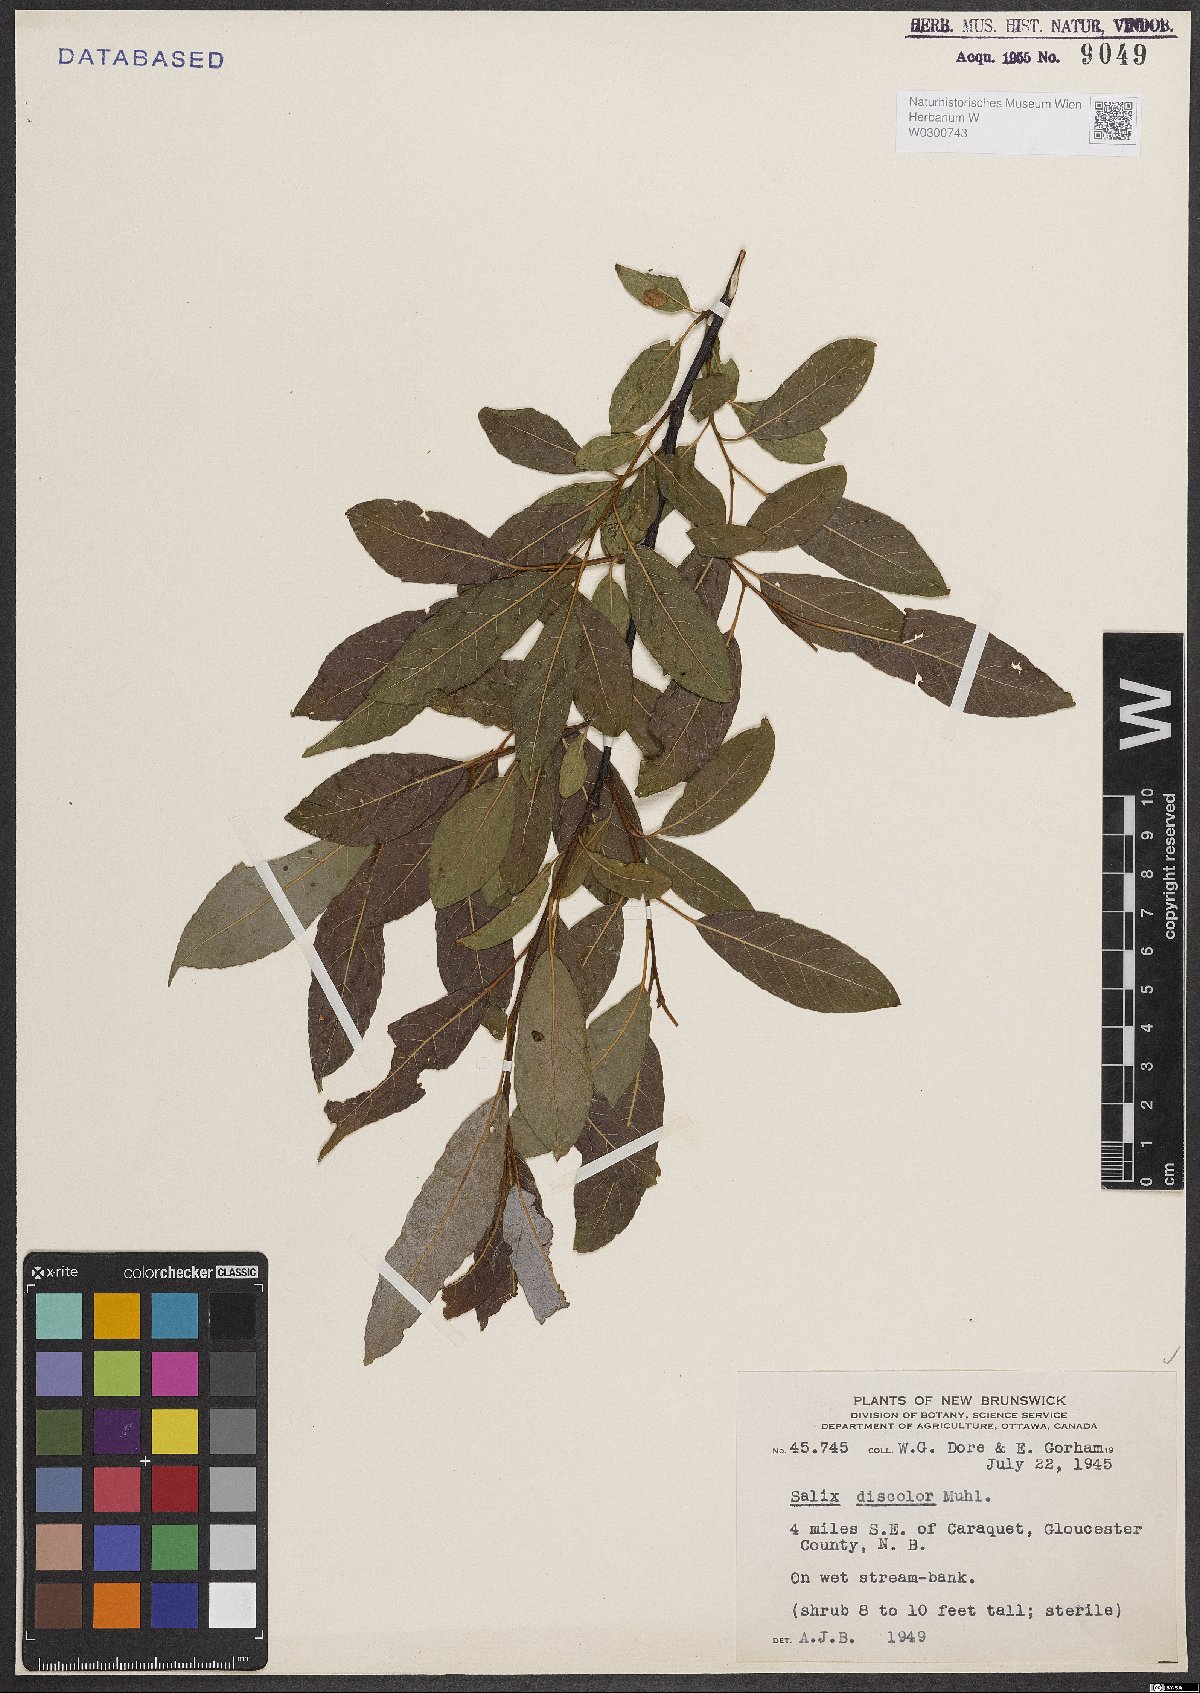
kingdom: Plantae
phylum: Tracheophyta
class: Magnoliopsida
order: Malpighiales
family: Salicaceae
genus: Salix
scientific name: Salix discolor
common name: Glaucous willow
